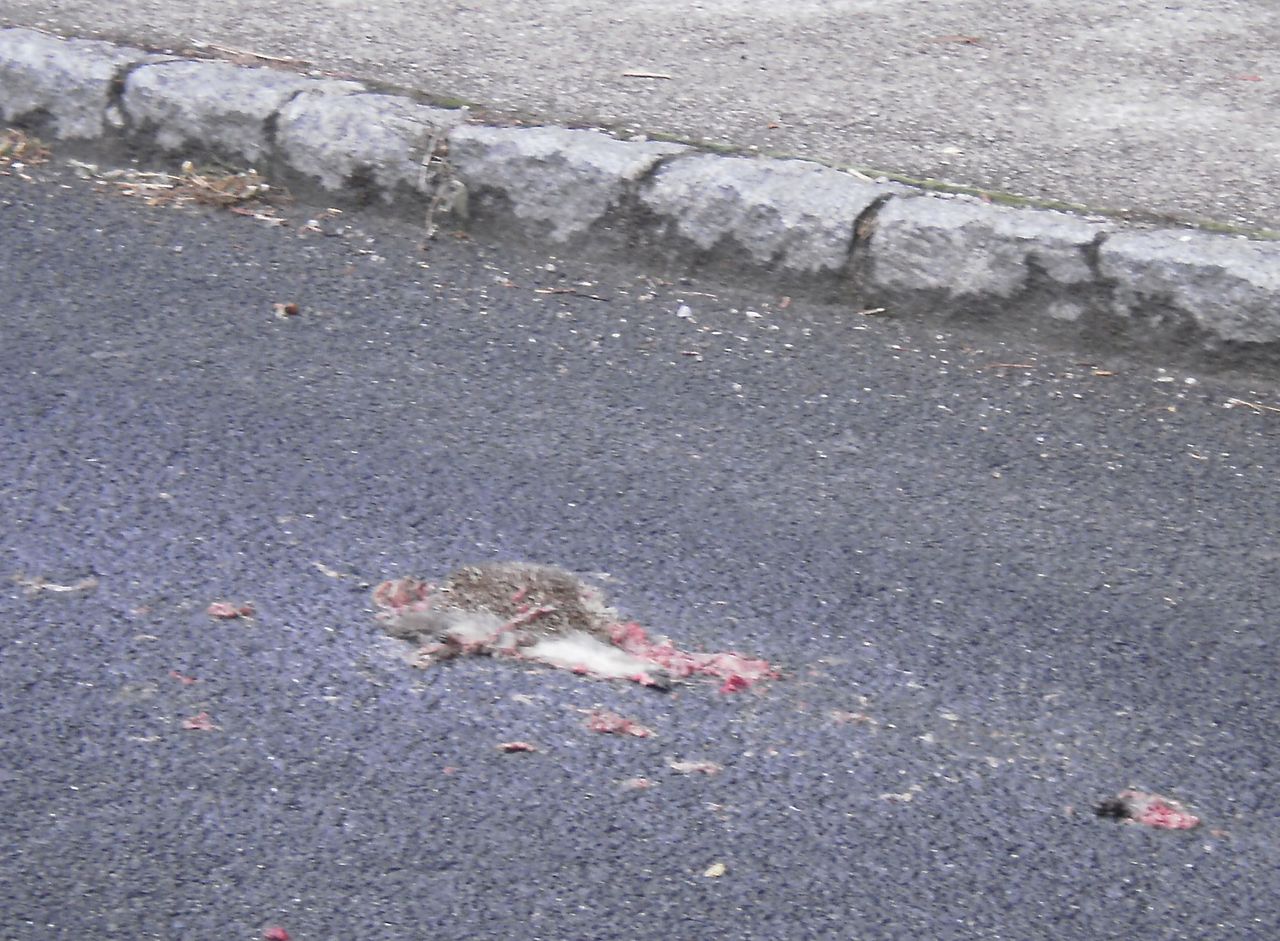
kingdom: Animalia
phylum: Chordata
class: Mammalia
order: Erinaceomorpha
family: Erinaceidae
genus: Erinaceus
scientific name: Erinaceus
